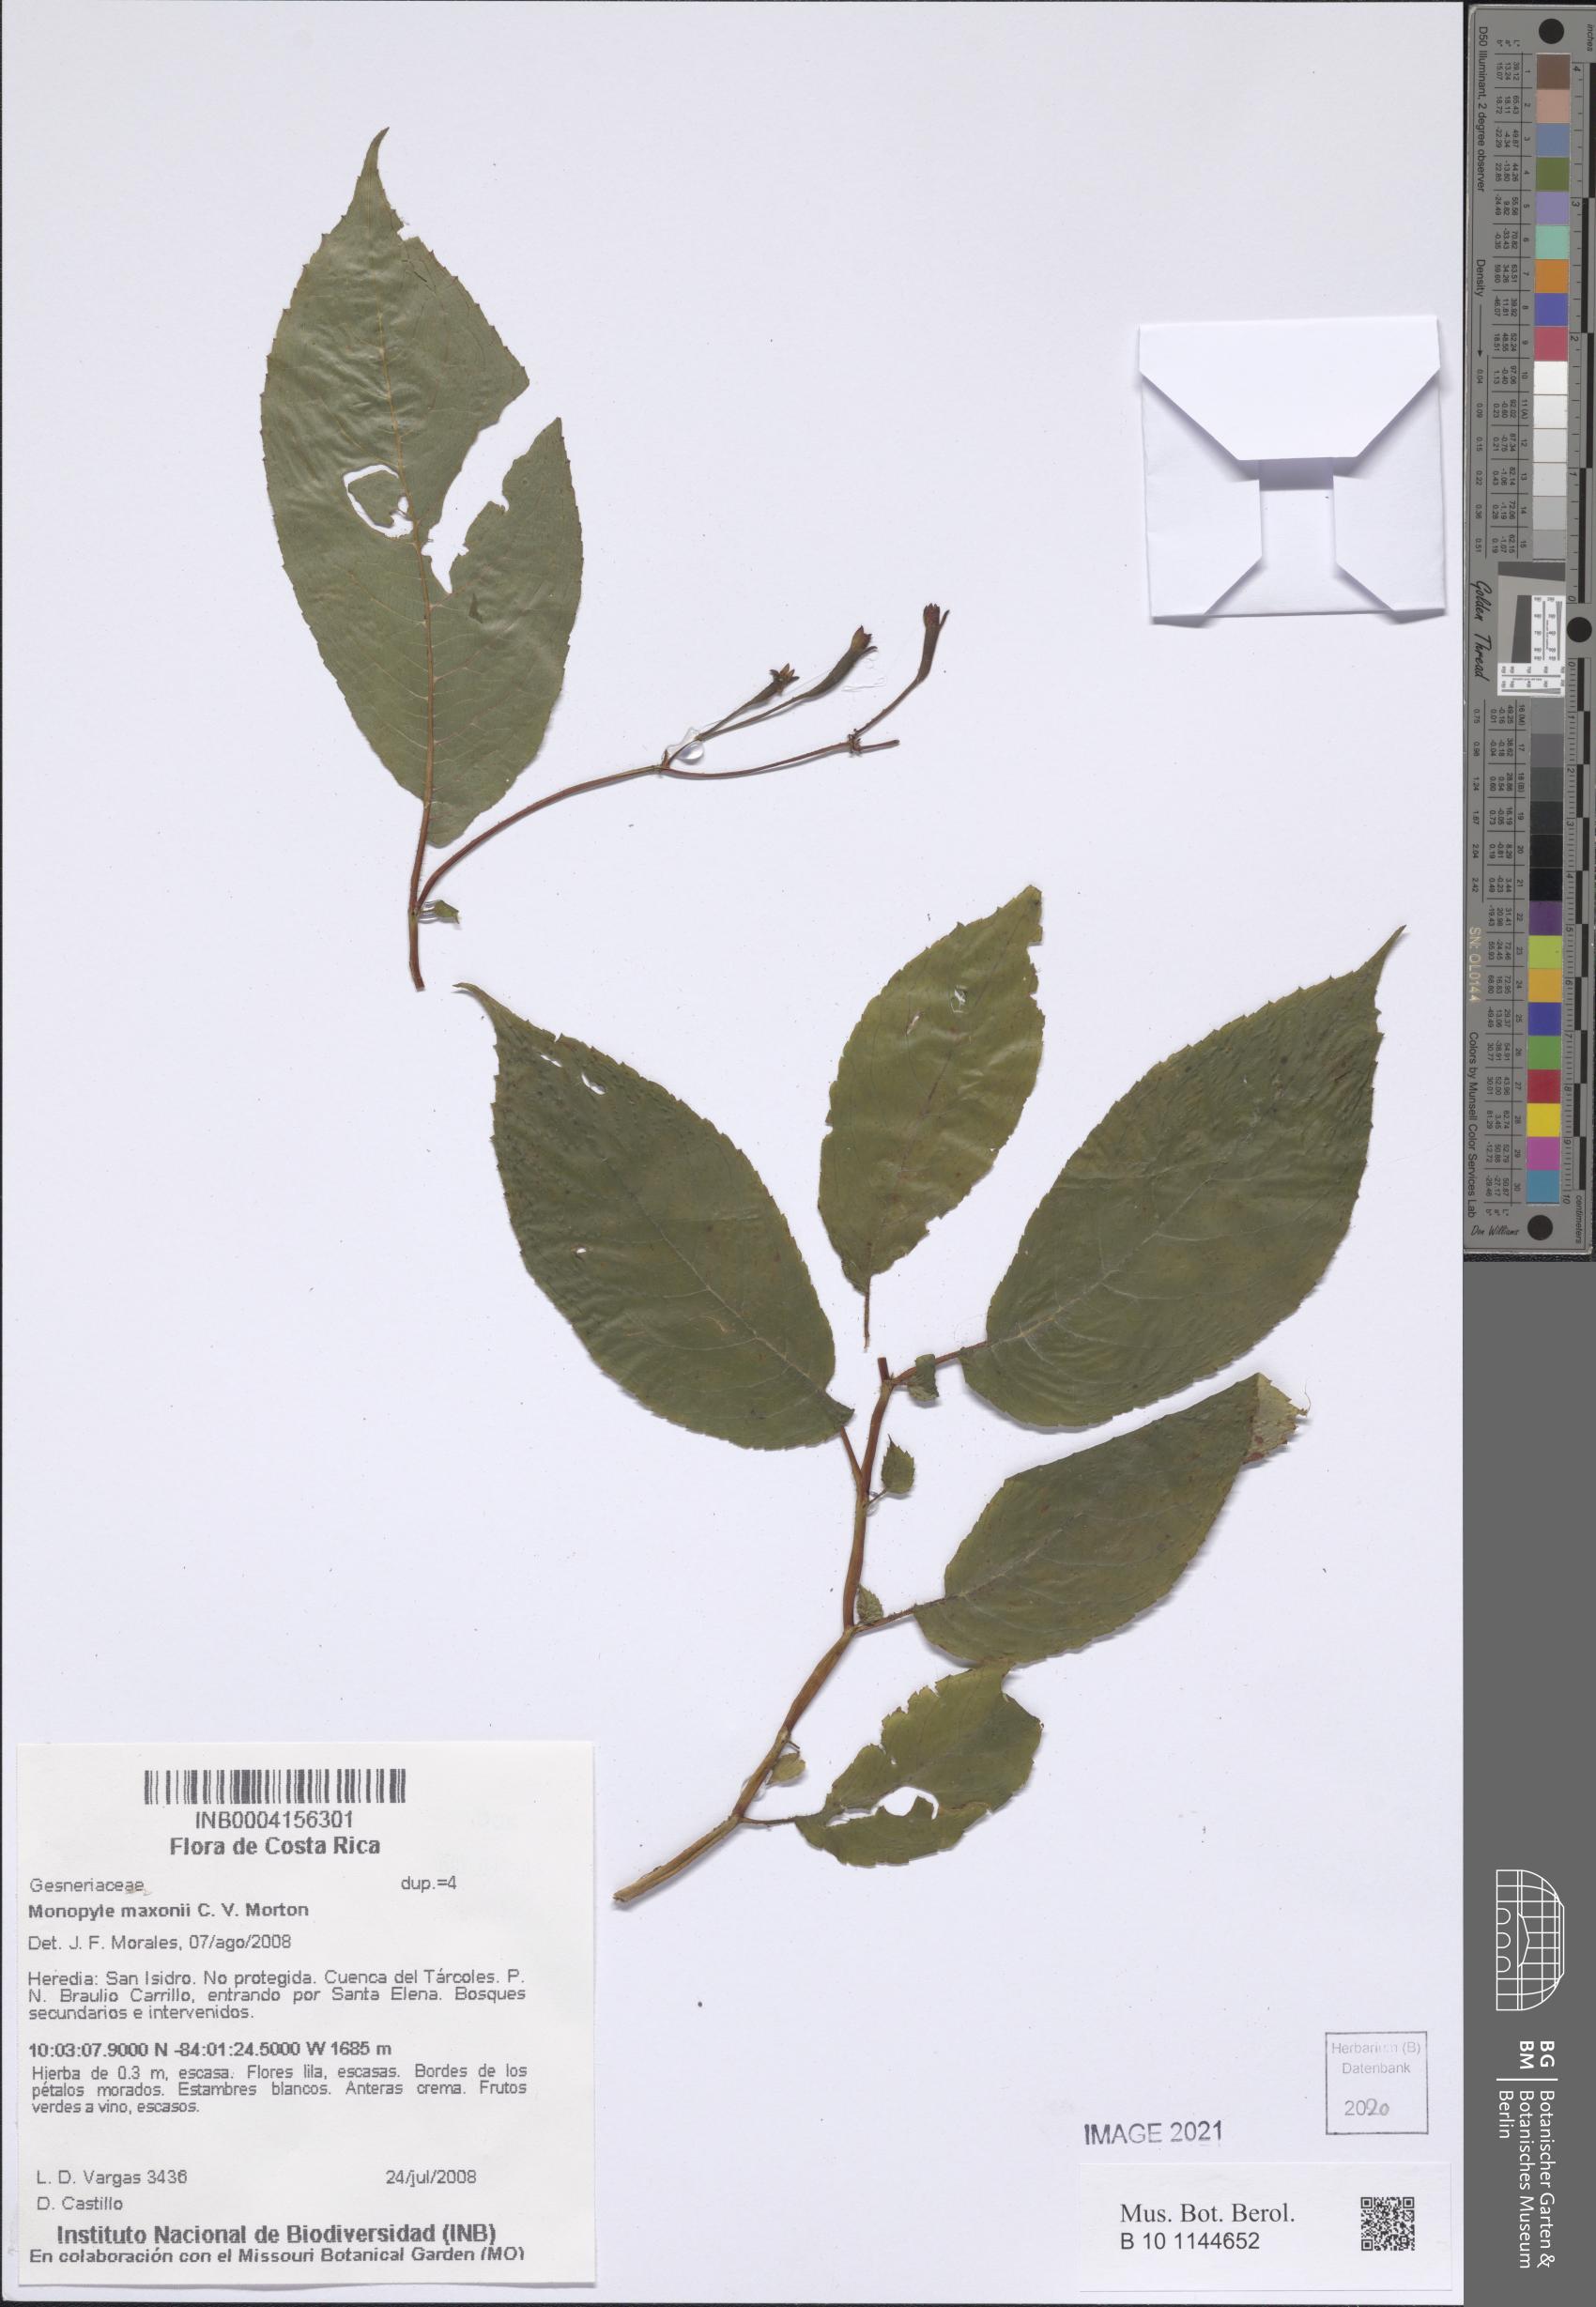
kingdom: Plantae
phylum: Tracheophyta
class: Magnoliopsida
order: Lamiales
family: Gesneriaceae
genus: Monopyle
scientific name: Monopyle maxonii
